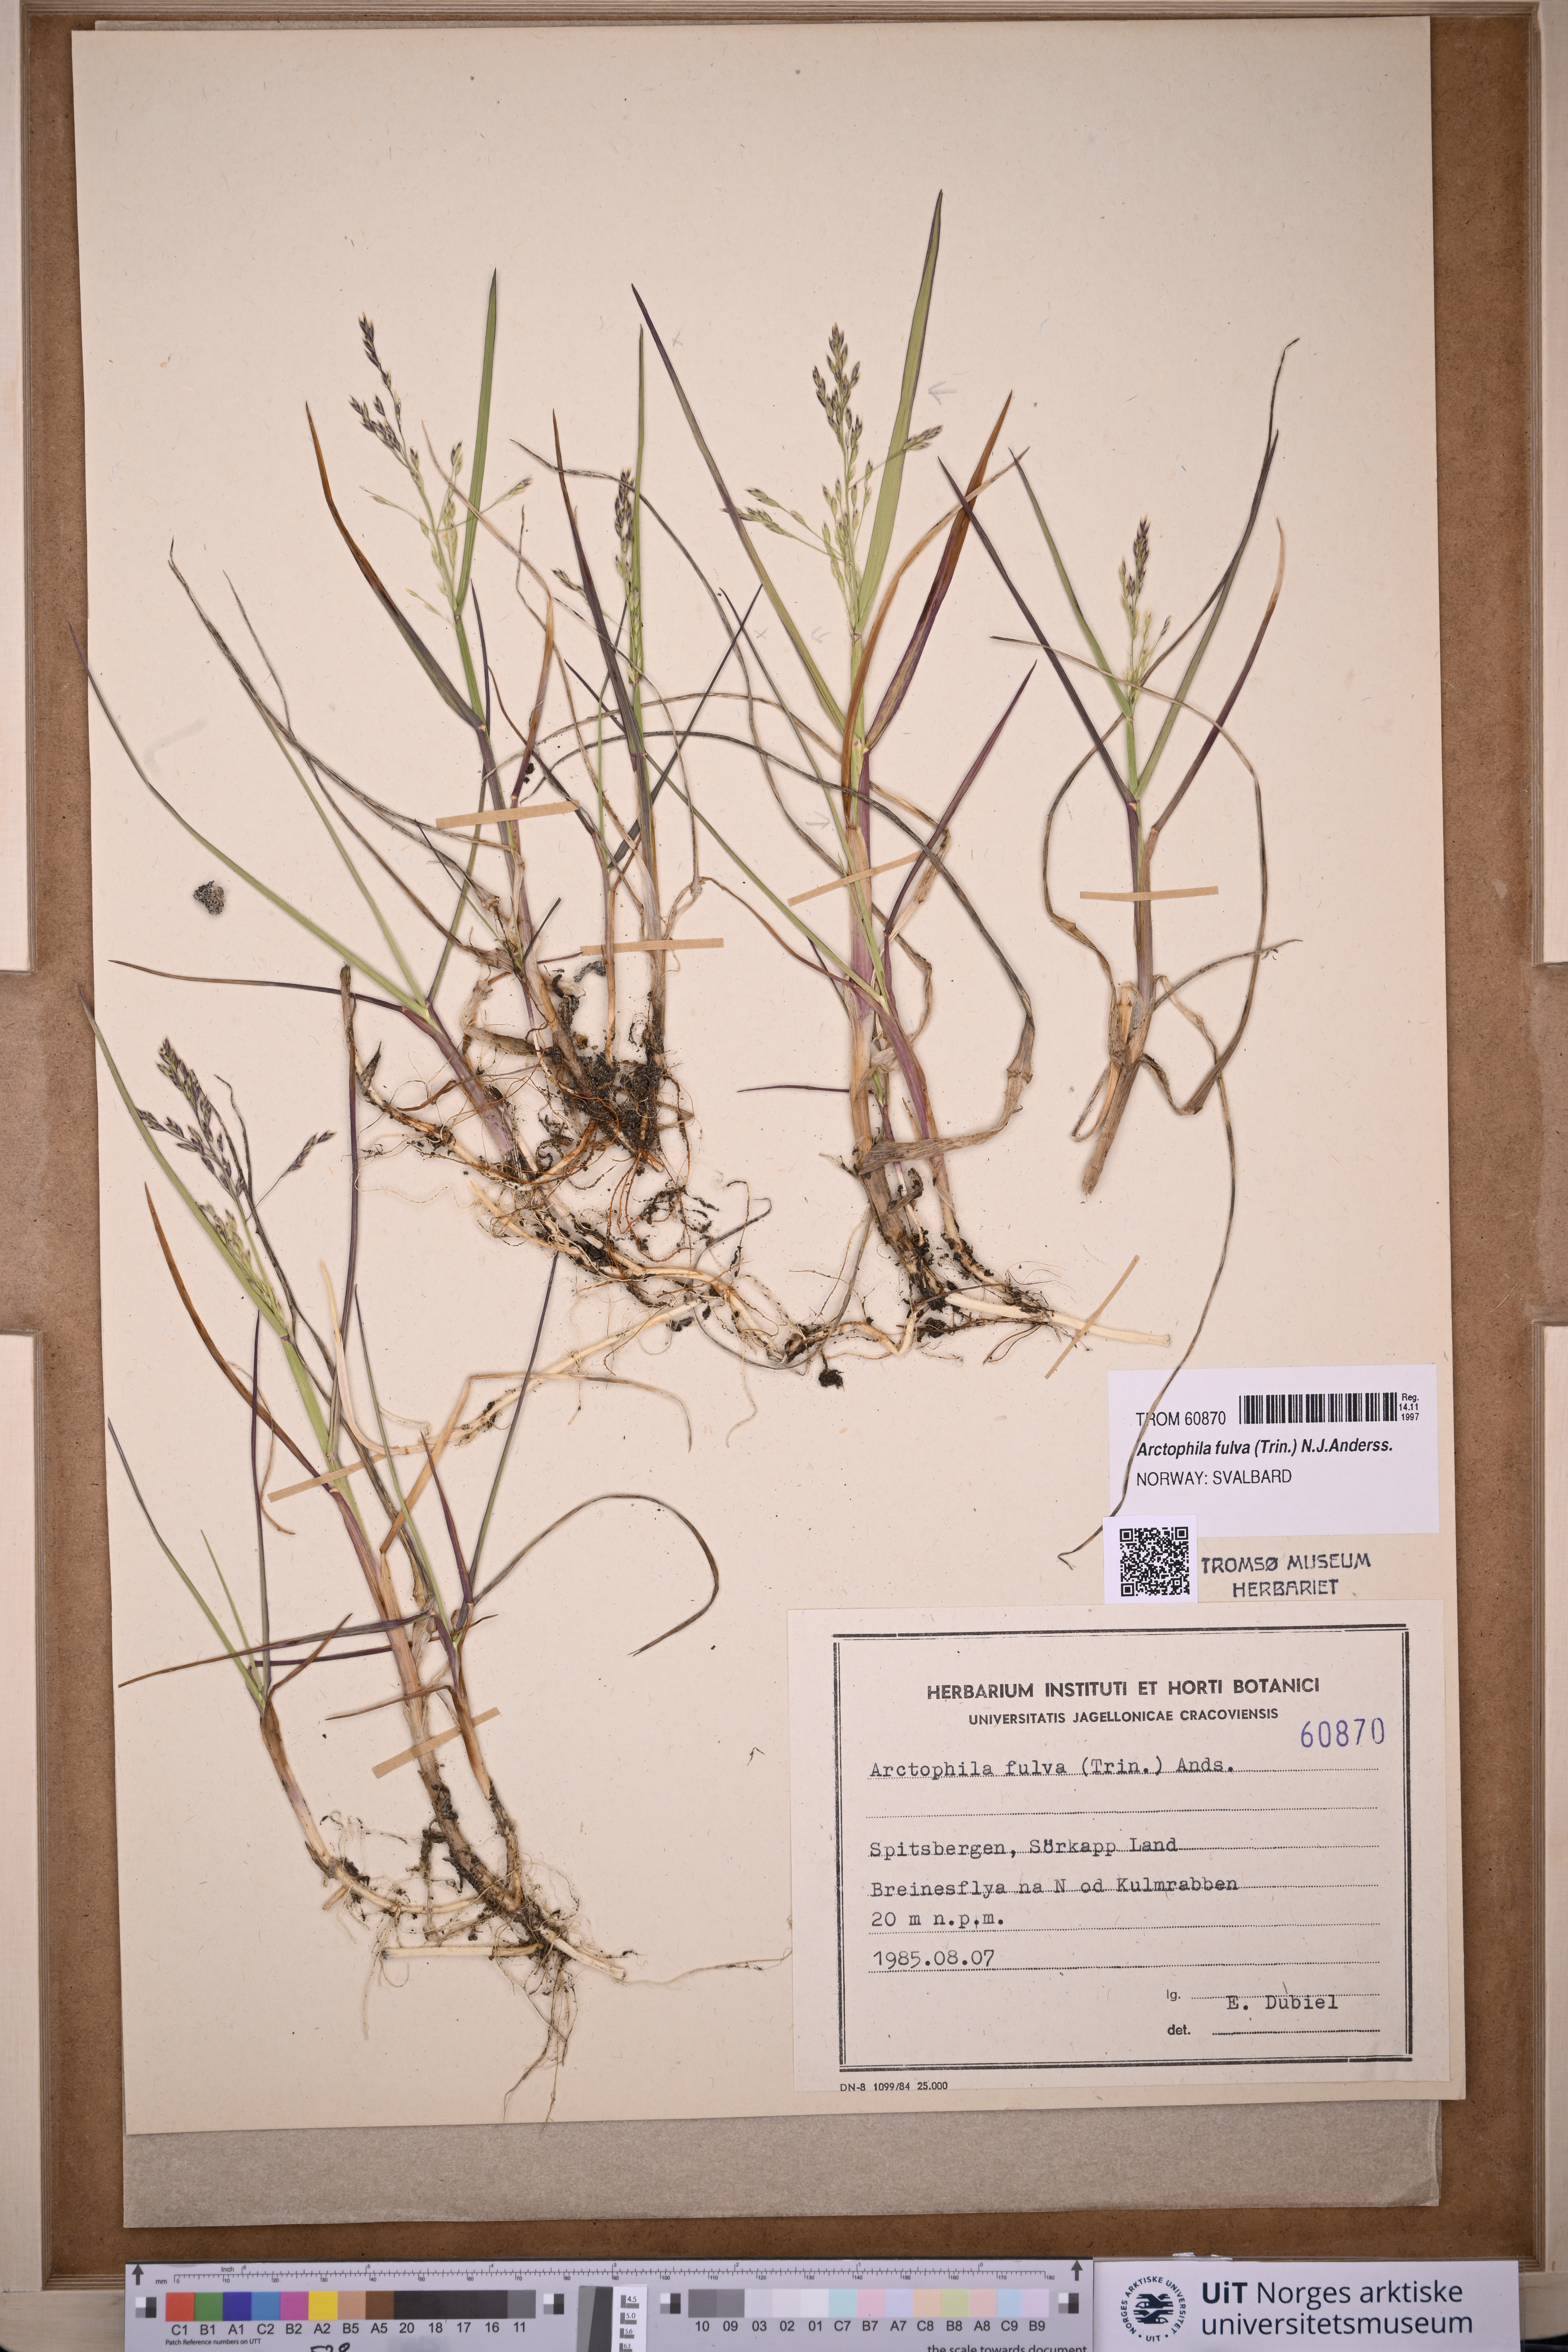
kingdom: Plantae
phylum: Tracheophyta
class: Liliopsida
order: Poales
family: Poaceae
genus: Dupontia
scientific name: Dupontia fulva
